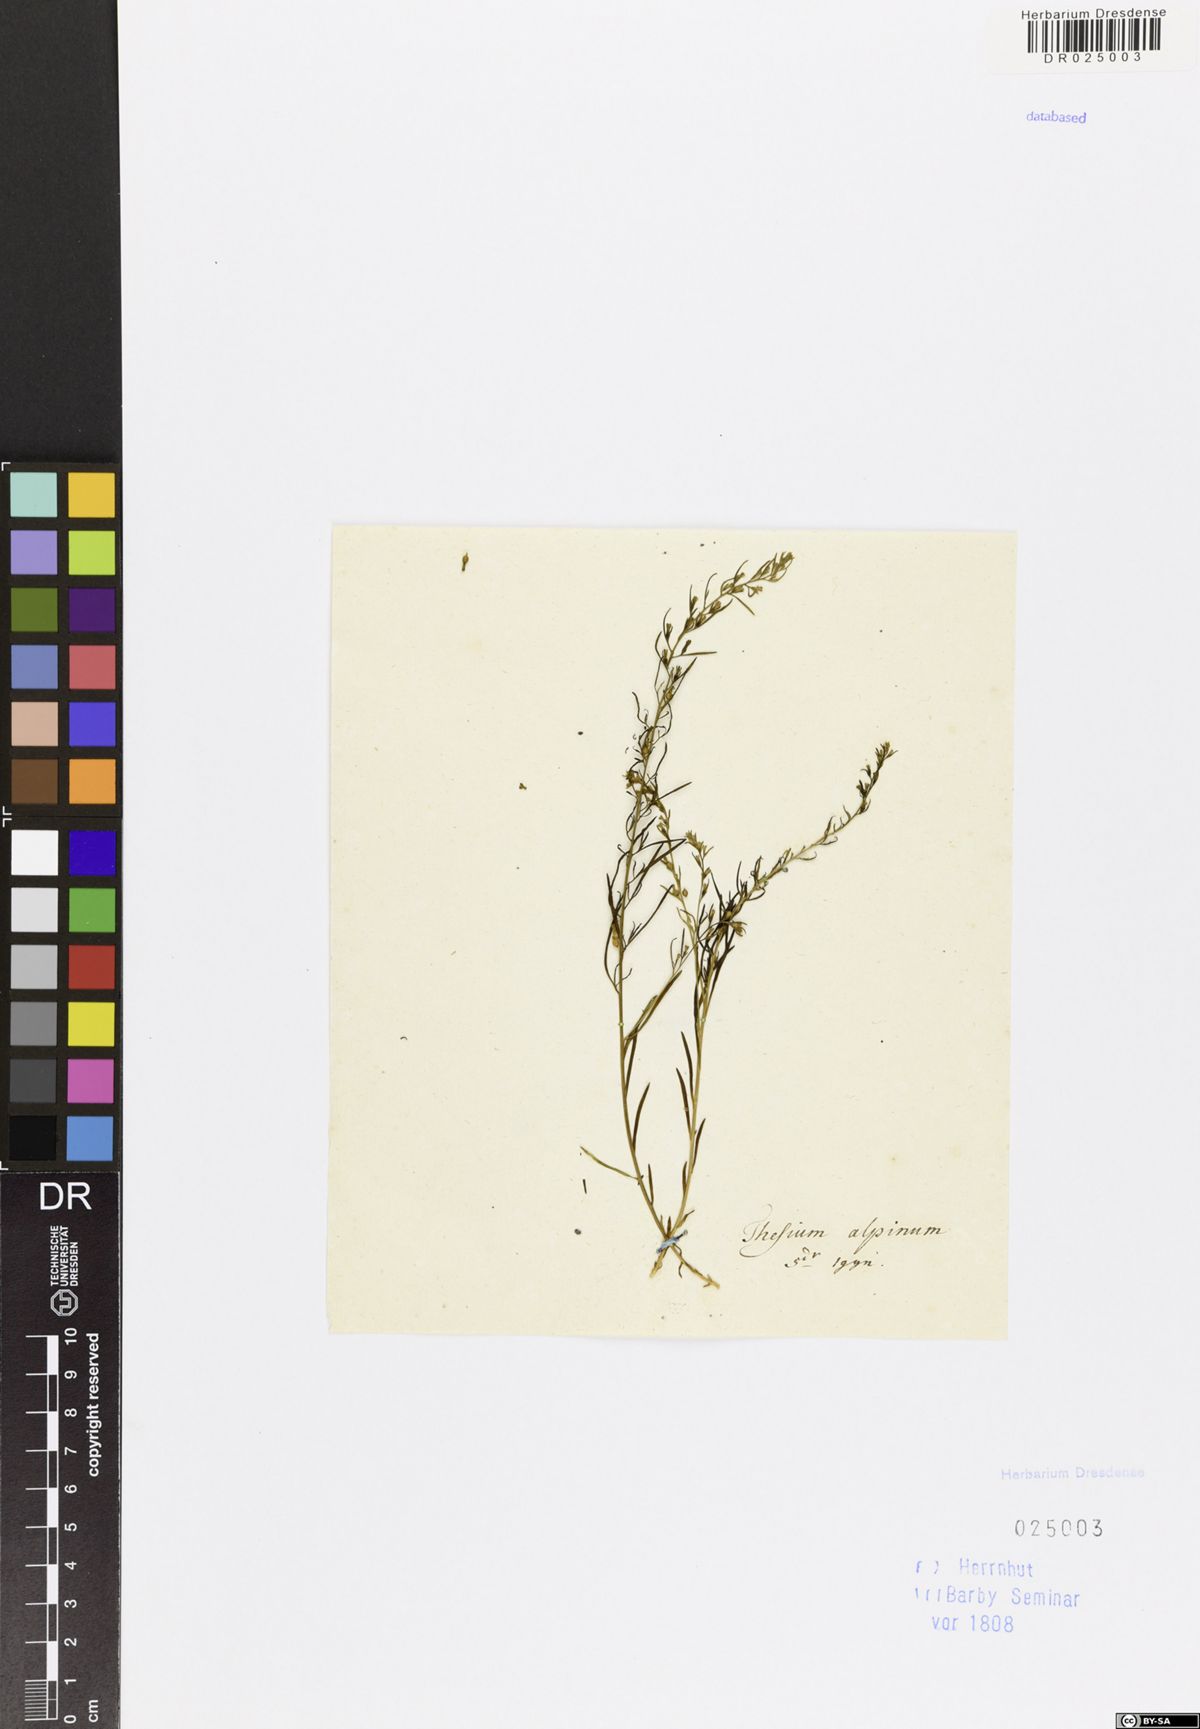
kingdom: Plantae
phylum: Tracheophyta
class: Magnoliopsida
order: Santalales
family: Thesiaceae
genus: Thesium
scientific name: Thesium alpinum
